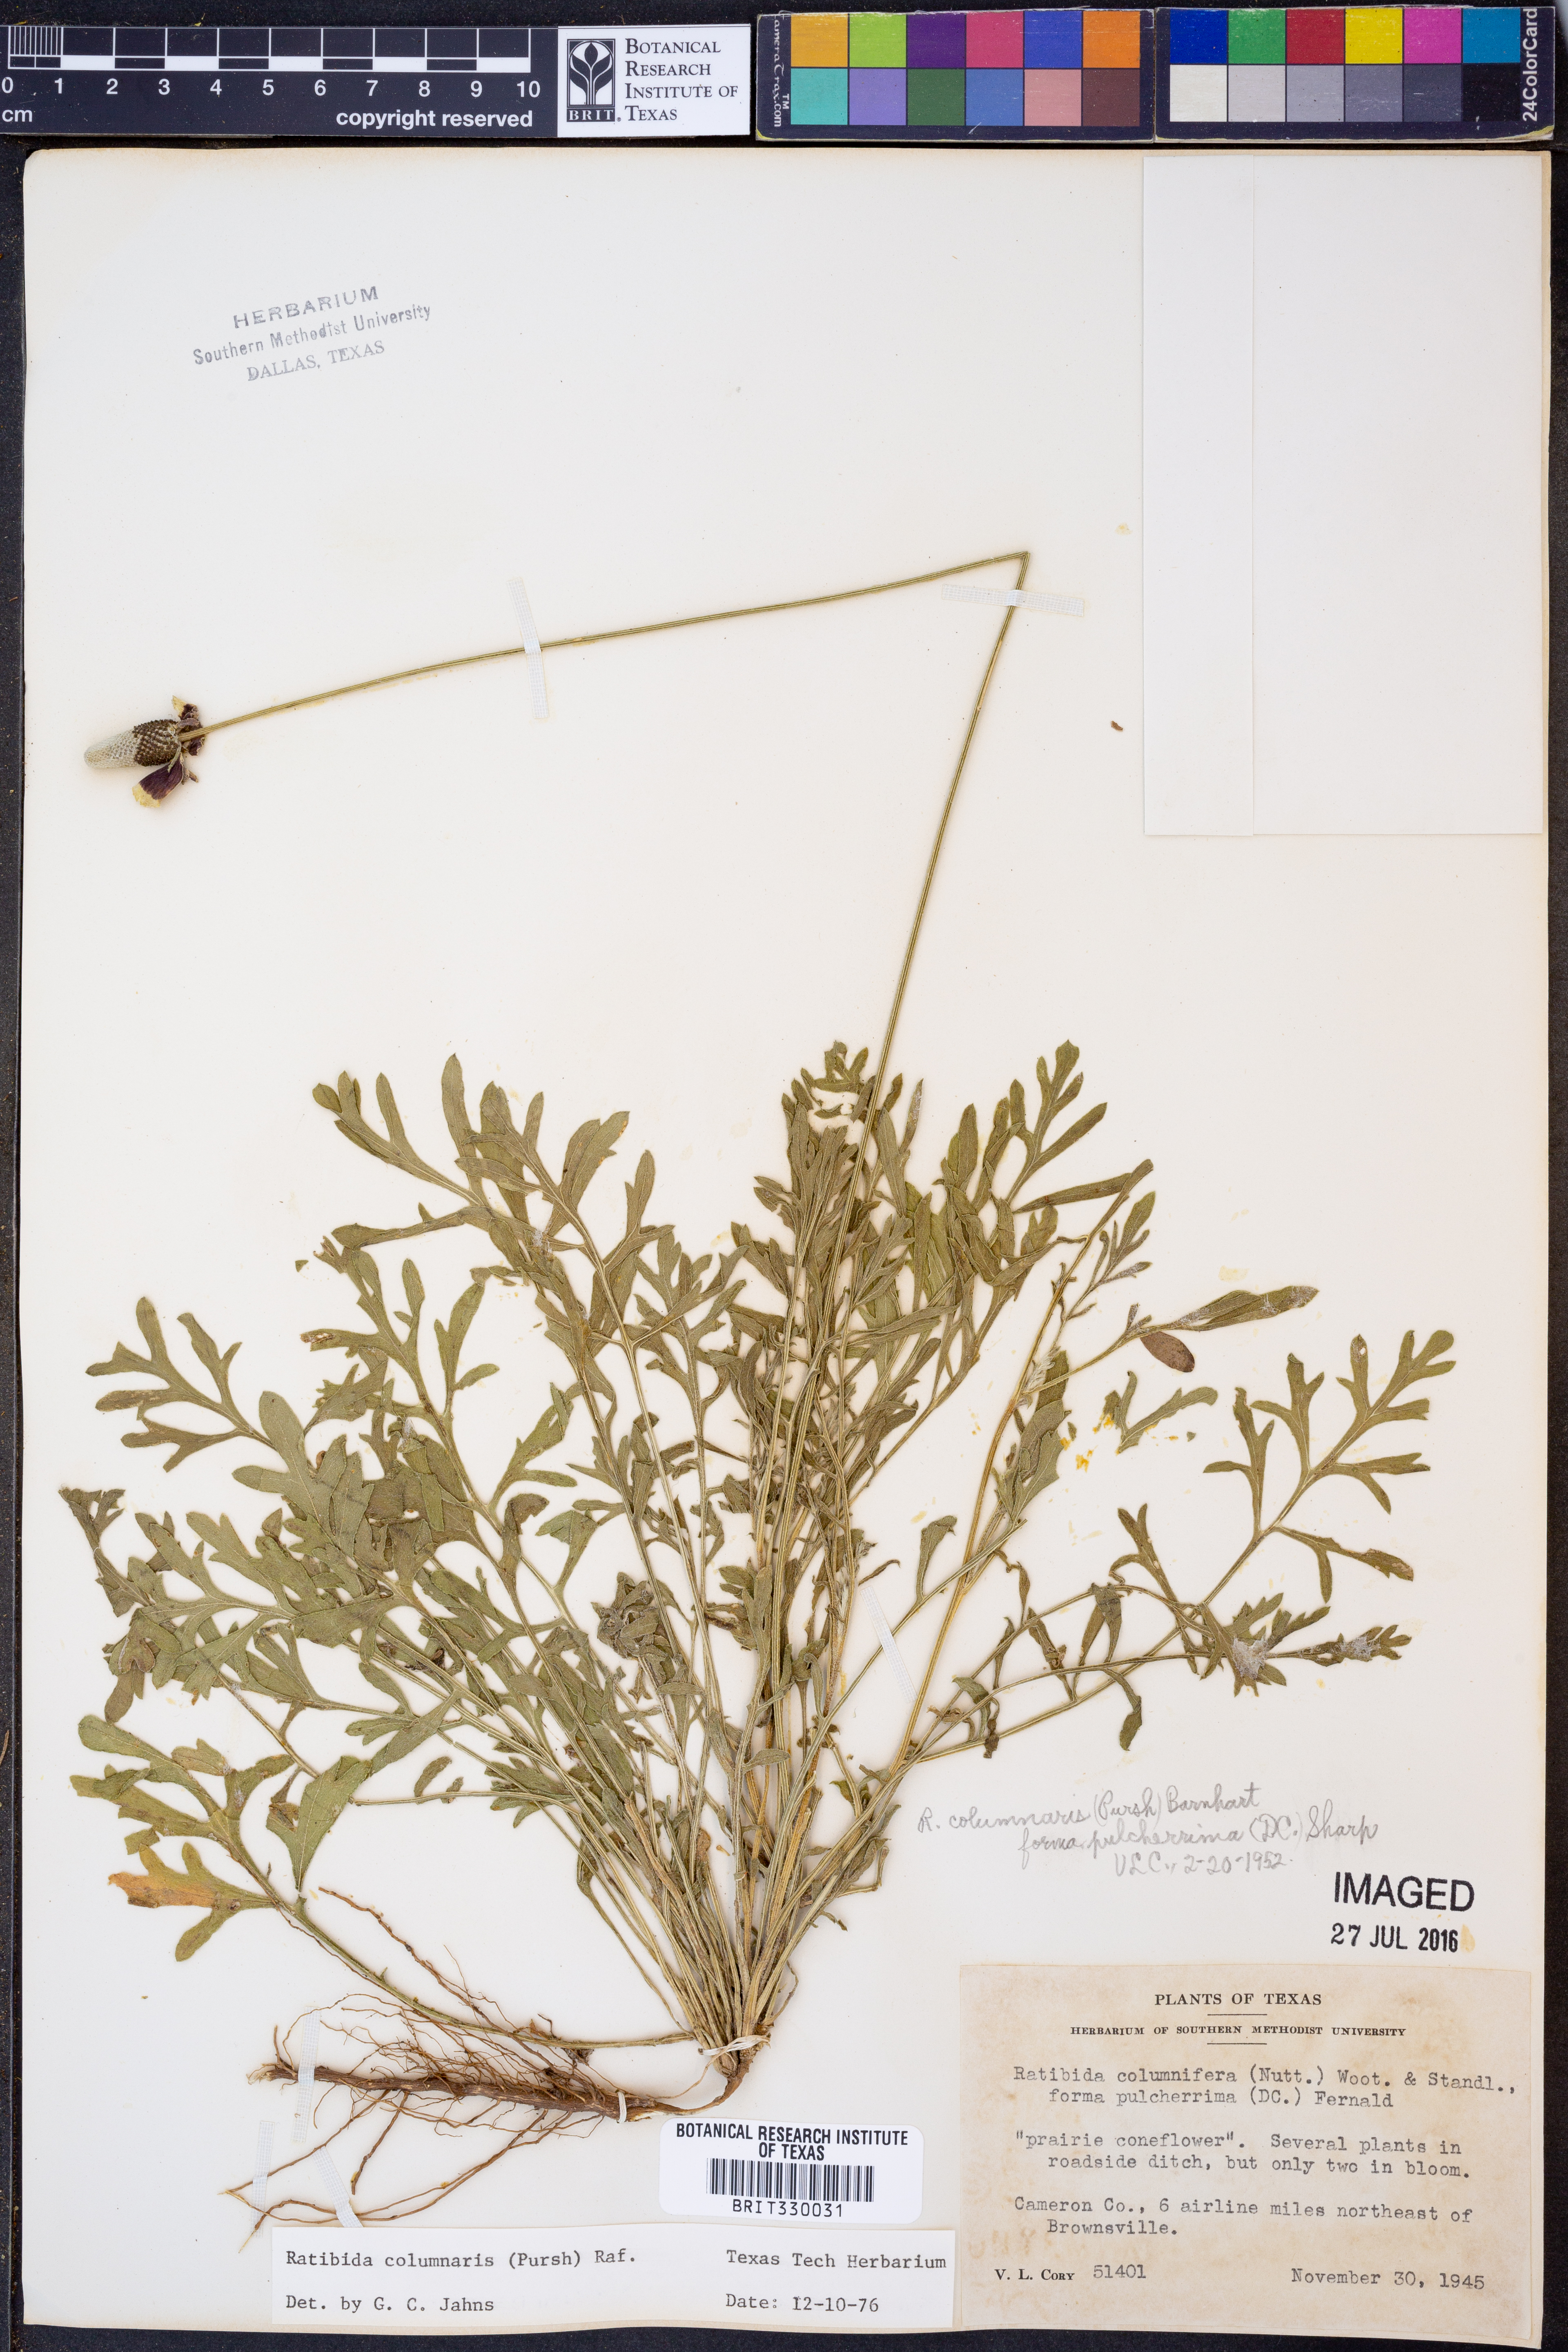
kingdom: Plantae
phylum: Tracheophyta
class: Magnoliopsida
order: Asterales
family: Asteraceae
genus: Ratibida
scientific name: Ratibida columnifera
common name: Prairie coneflower
